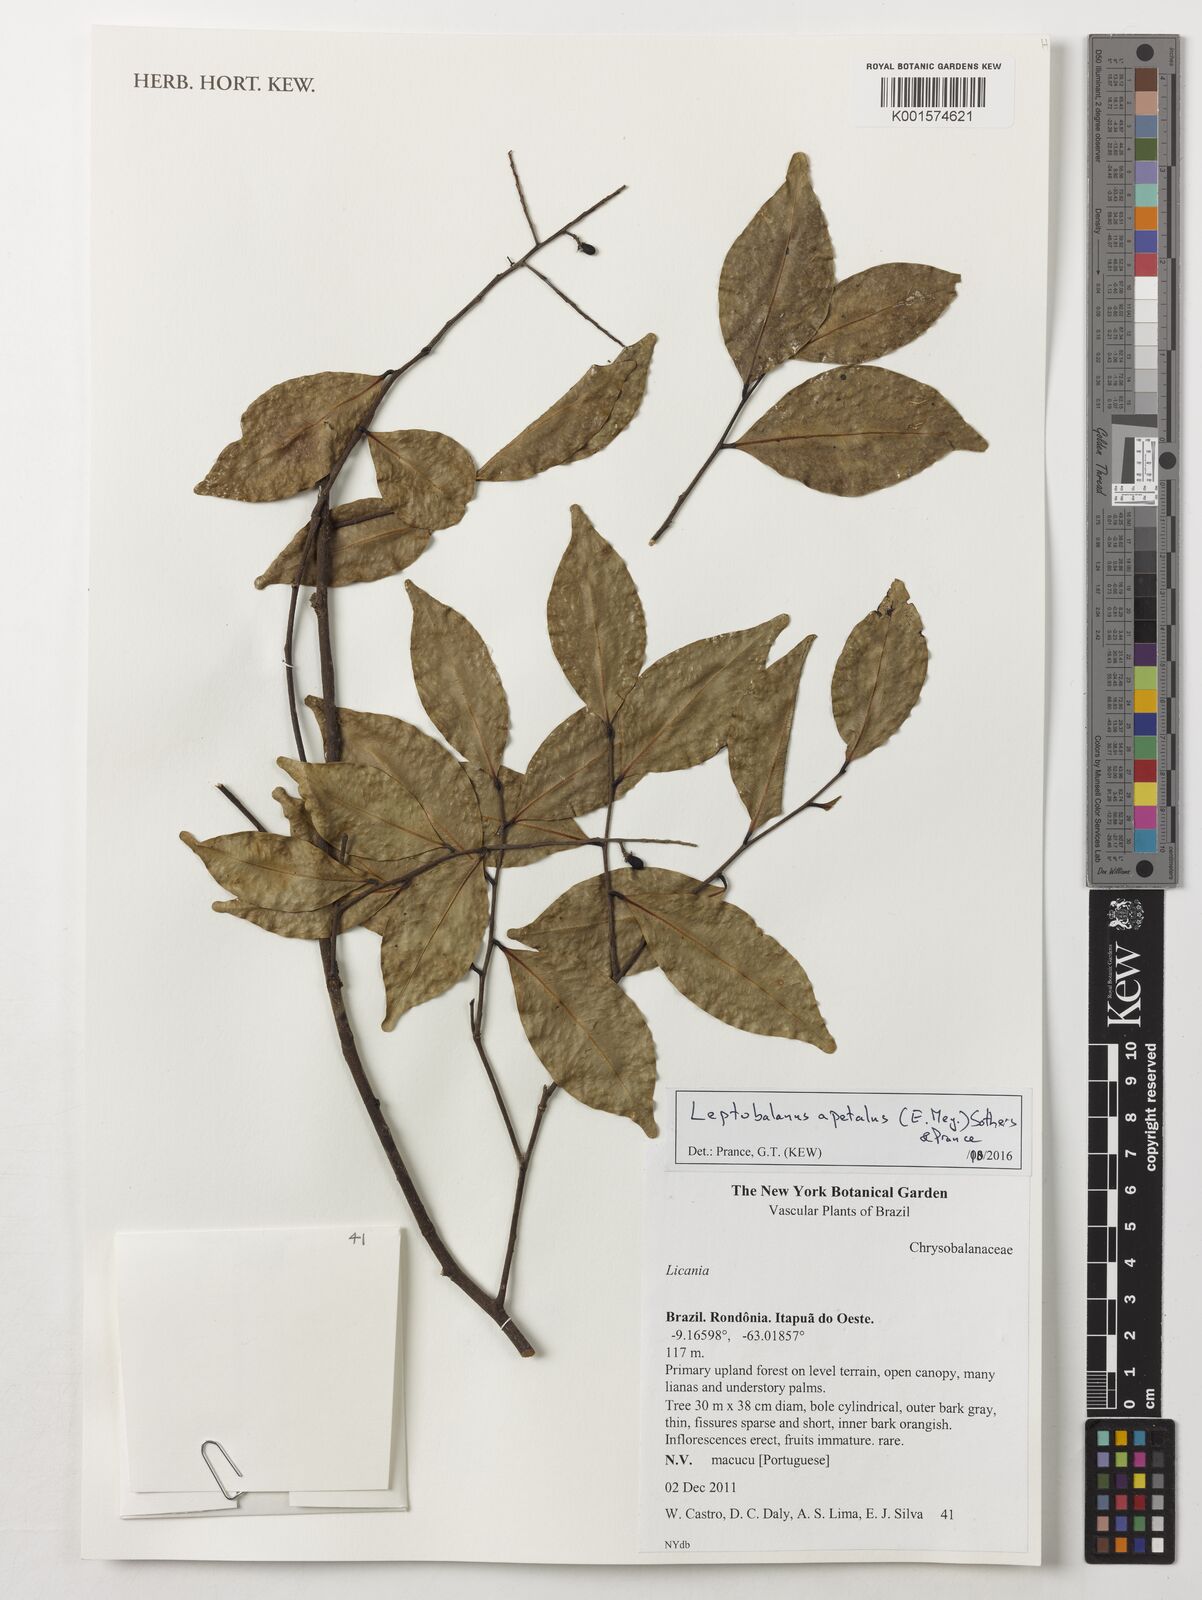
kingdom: Plantae
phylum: Tracheophyta
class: Magnoliopsida
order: Malpighiales
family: Chrysobalanaceae
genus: Leptobalanus
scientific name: Leptobalanus apetalus
